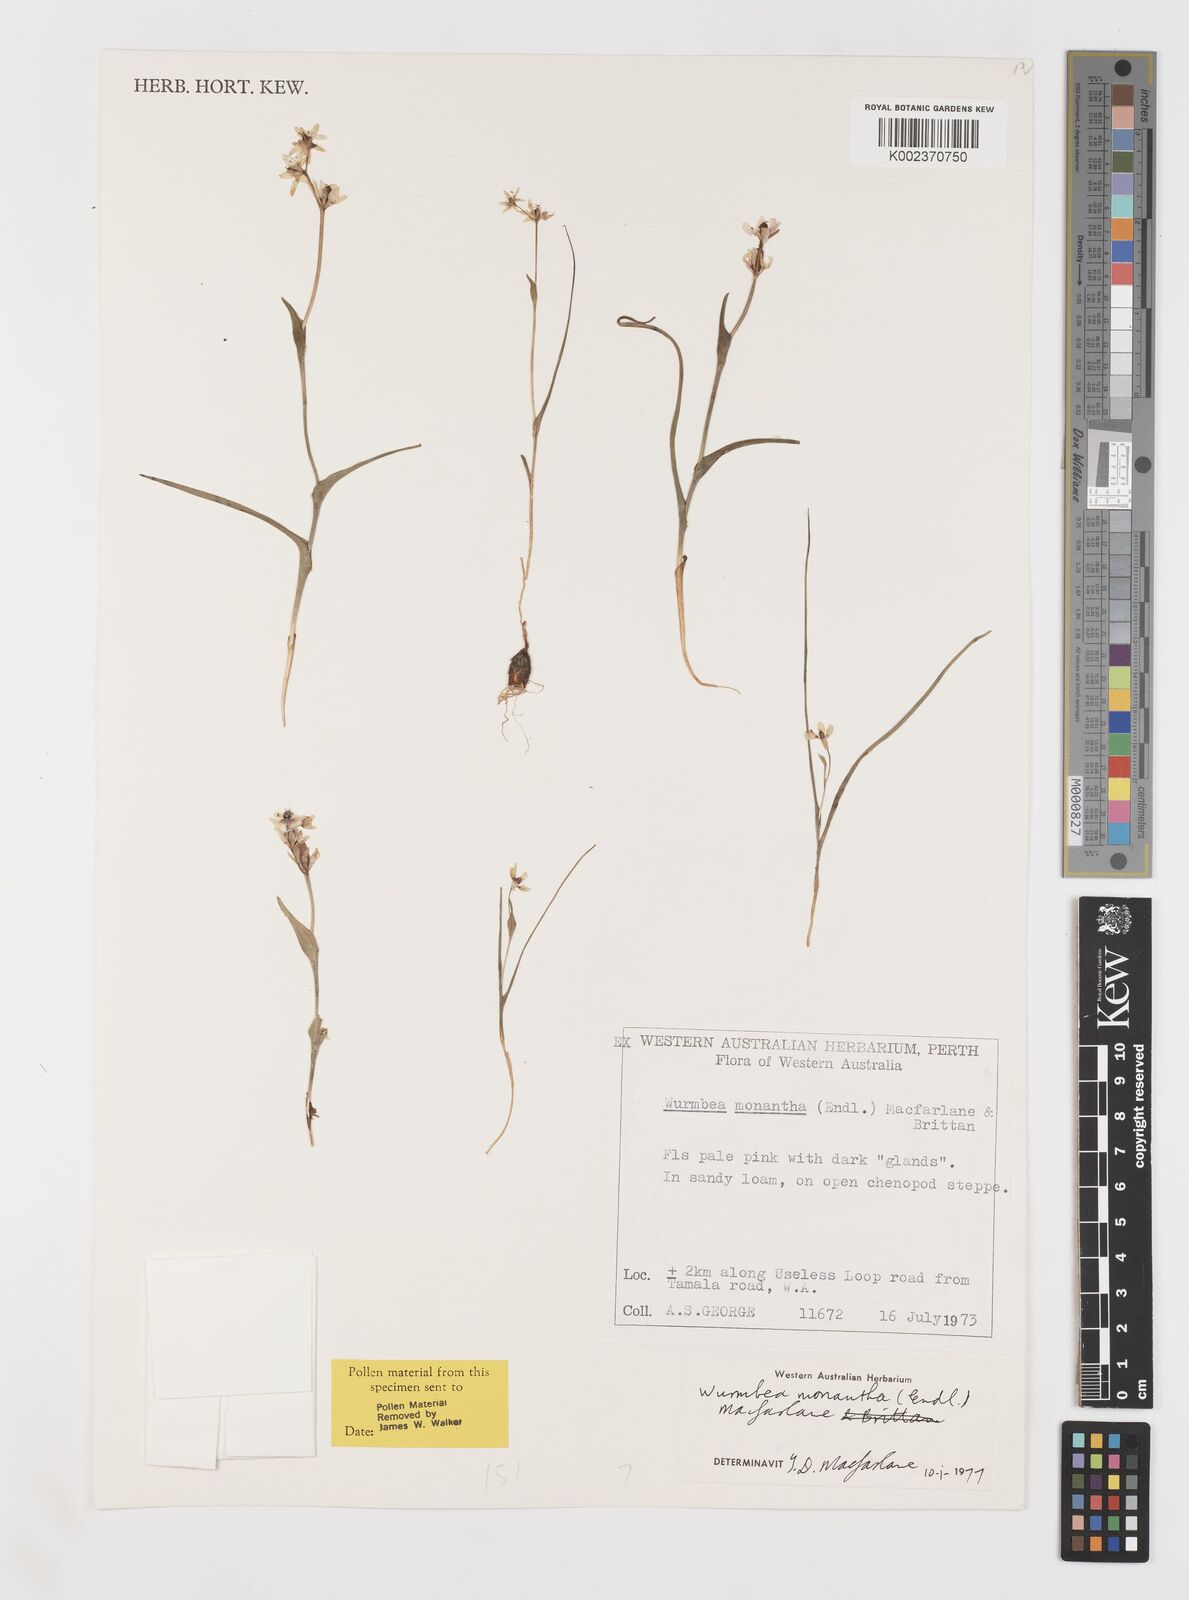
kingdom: Plantae
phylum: Tracheophyta
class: Liliopsida
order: Liliales
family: Colchicaceae
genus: Wurmbea
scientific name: Wurmbea monantha
